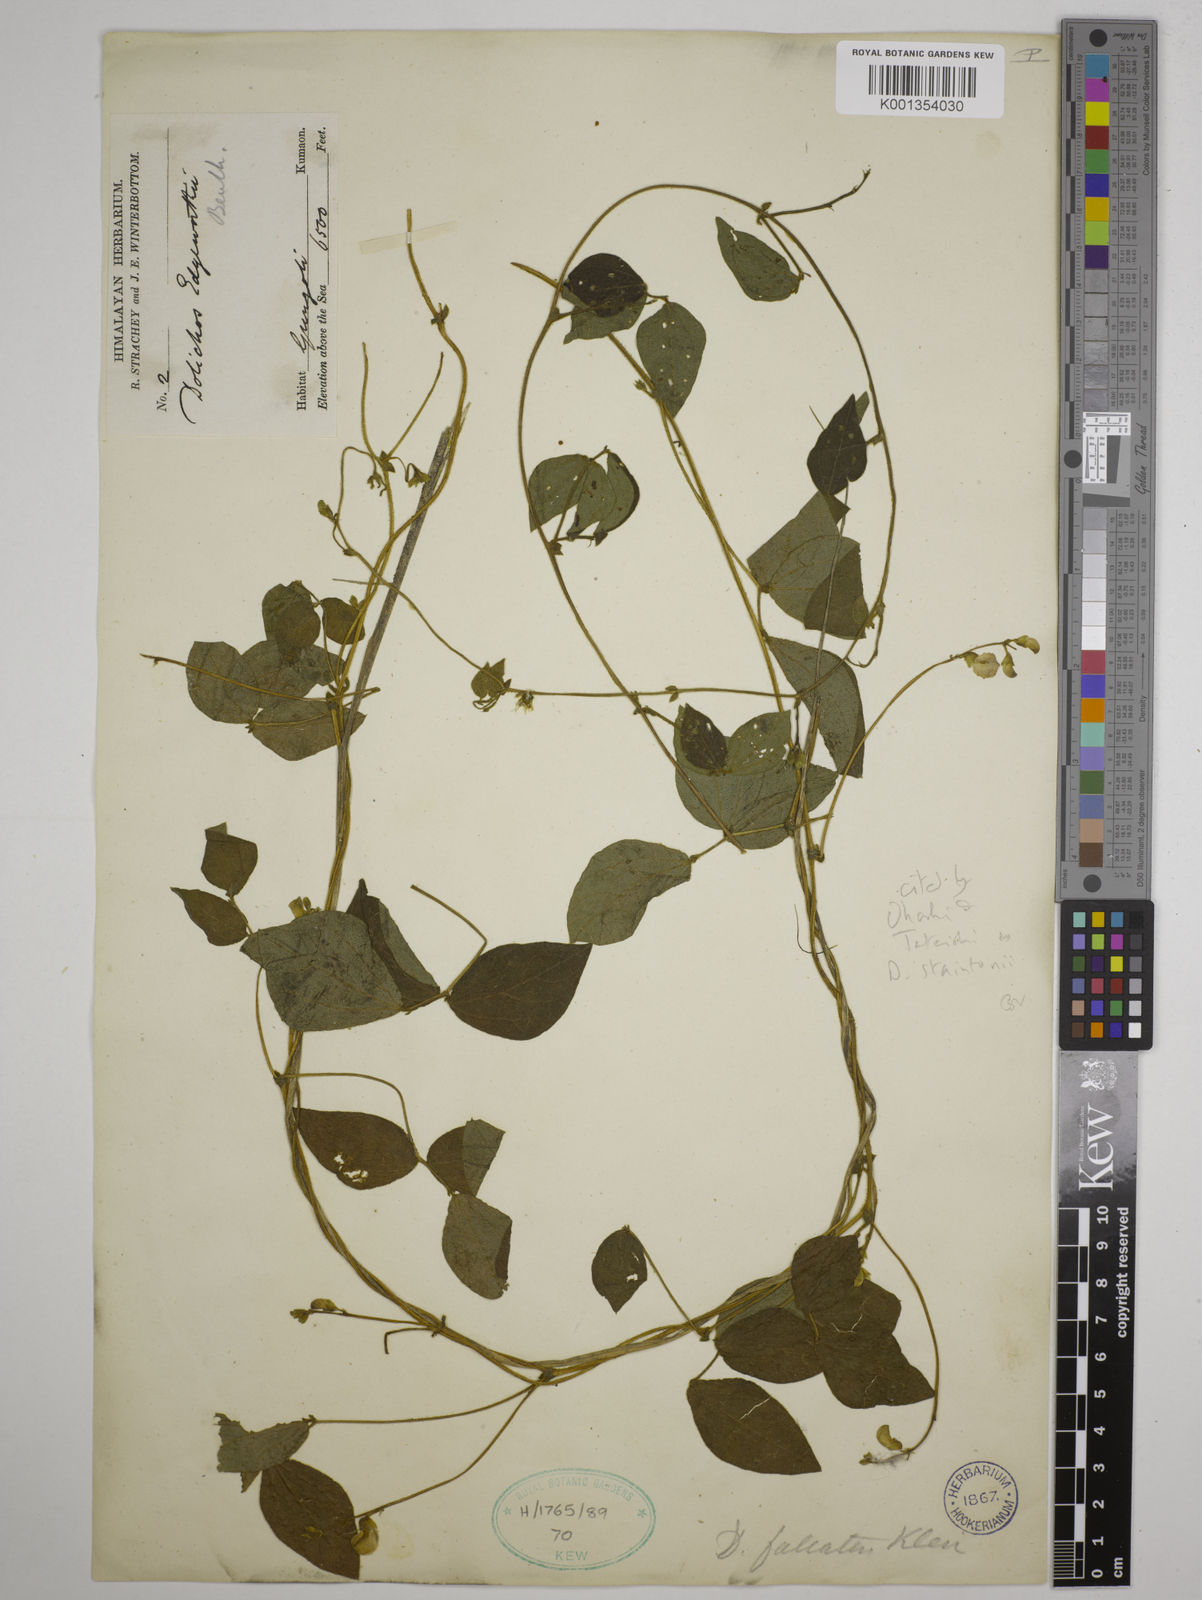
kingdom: Plantae
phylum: Tracheophyta
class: Magnoliopsida
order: Fabales
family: Fabaceae
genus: Dolichos
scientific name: Dolichos
